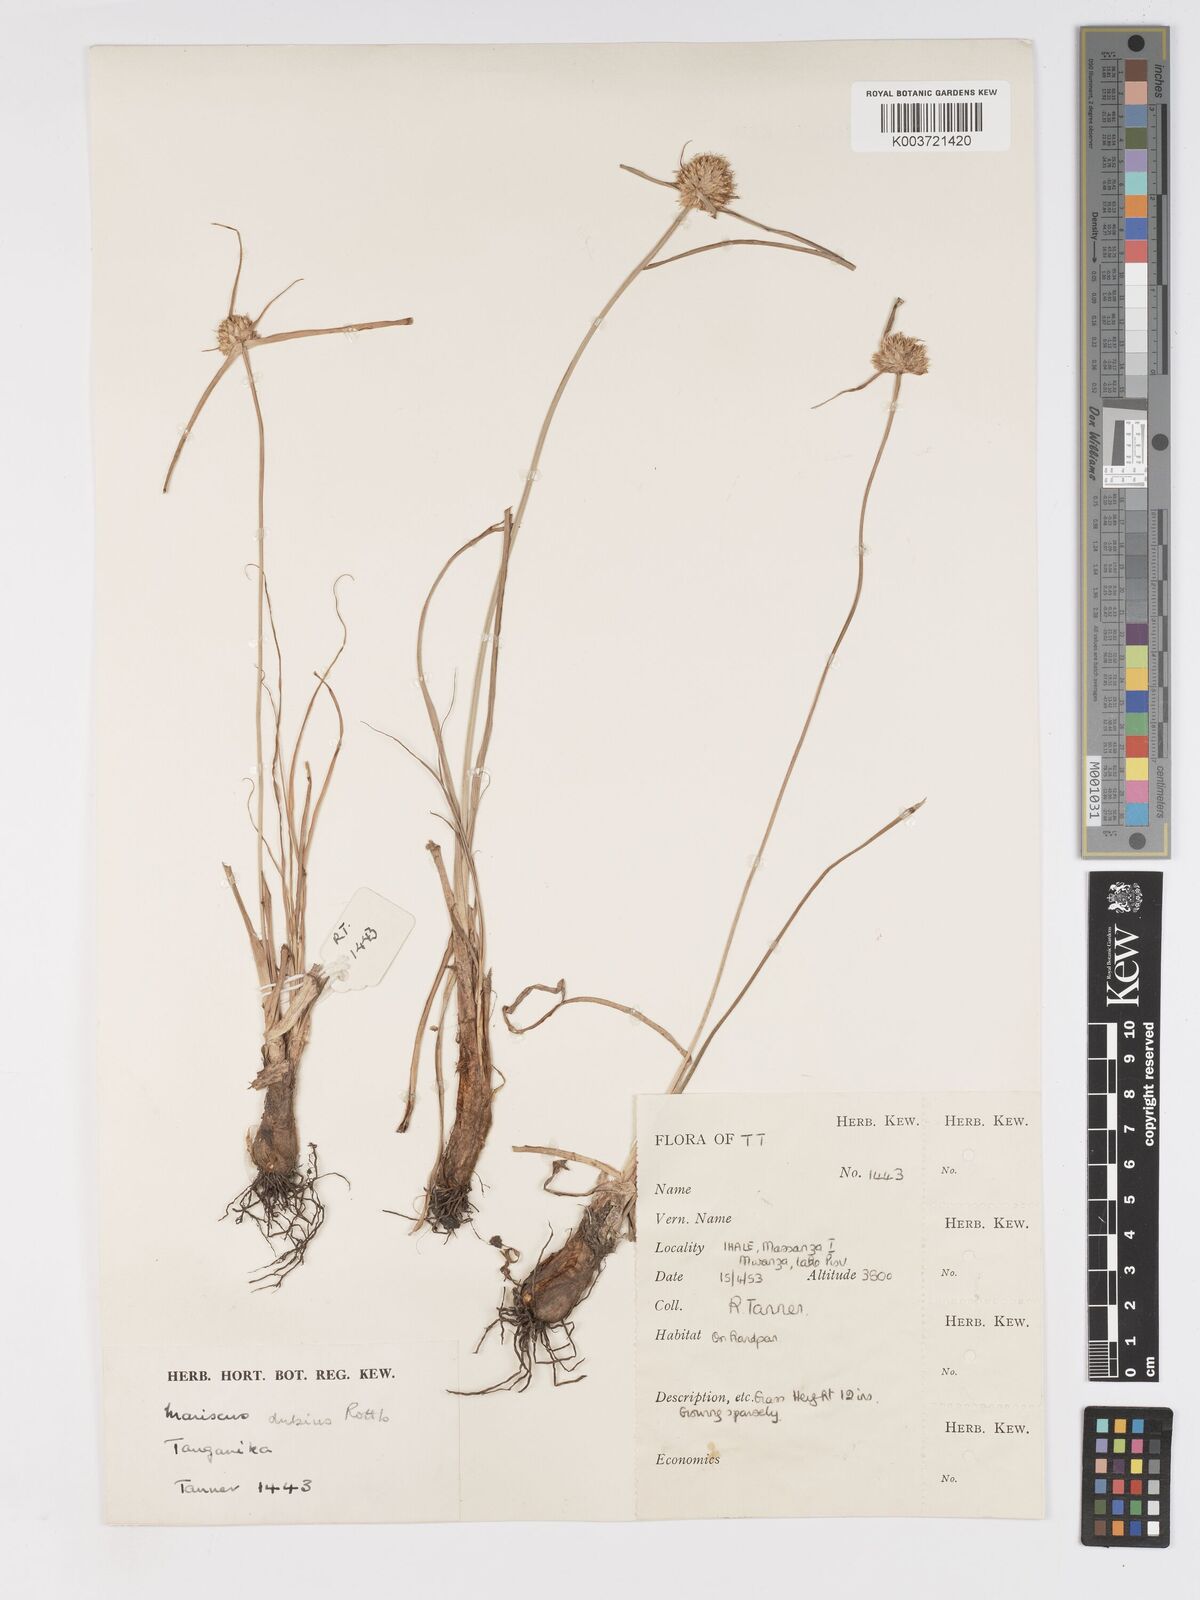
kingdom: Plantae
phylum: Tracheophyta
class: Liliopsida
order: Poales
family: Cyperaceae
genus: Cyperus
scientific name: Cyperus mollipes
